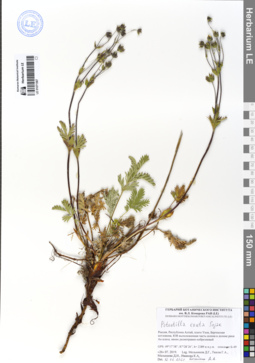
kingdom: Plantae
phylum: Tracheophyta
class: Magnoliopsida
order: Rosales
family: Rosaceae
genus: Potentilla
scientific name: Potentilla exuta
